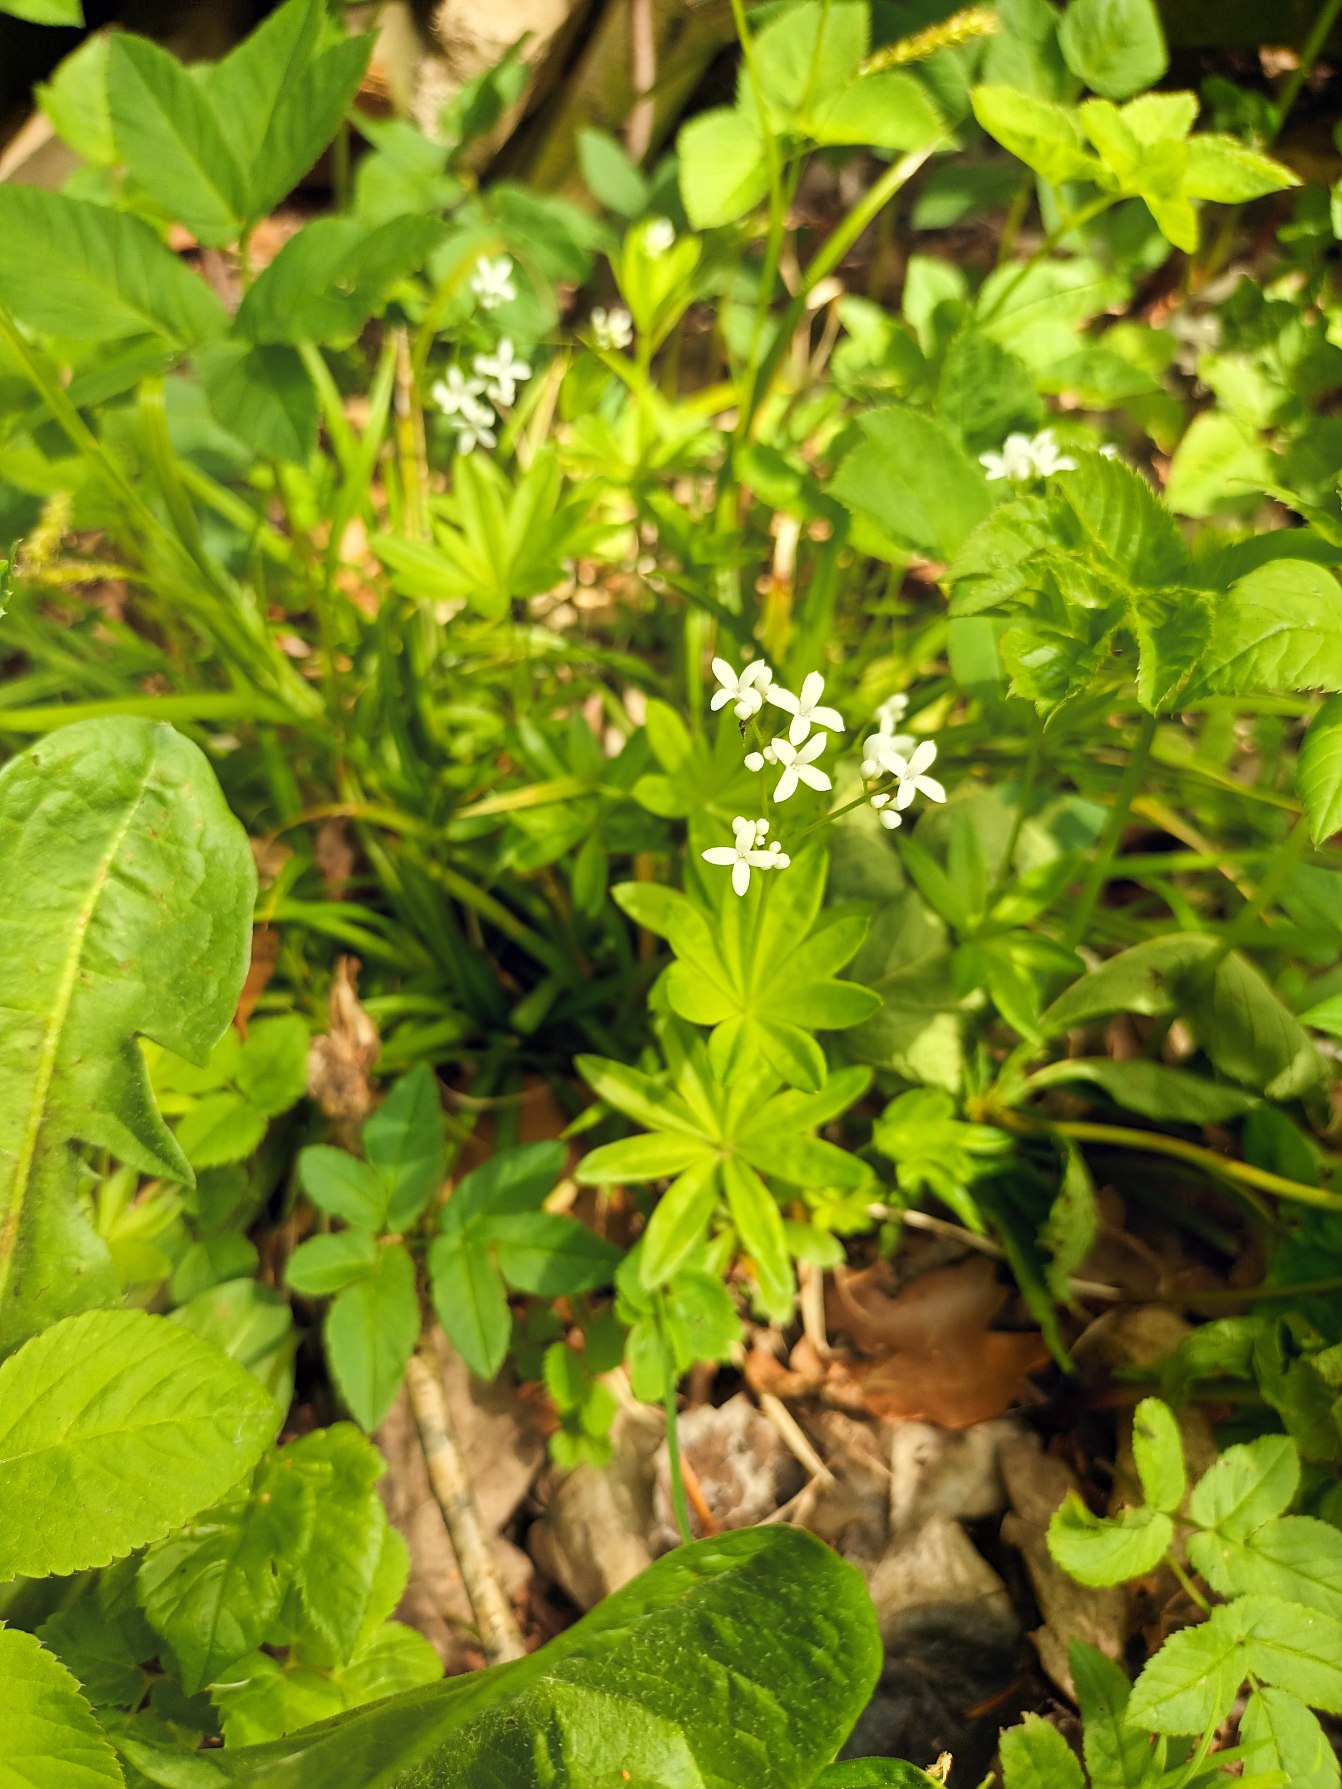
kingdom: Plantae
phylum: Tracheophyta
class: Magnoliopsida
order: Gentianales
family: Rubiaceae
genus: Galium
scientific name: Galium odoratum
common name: Skovmærke
